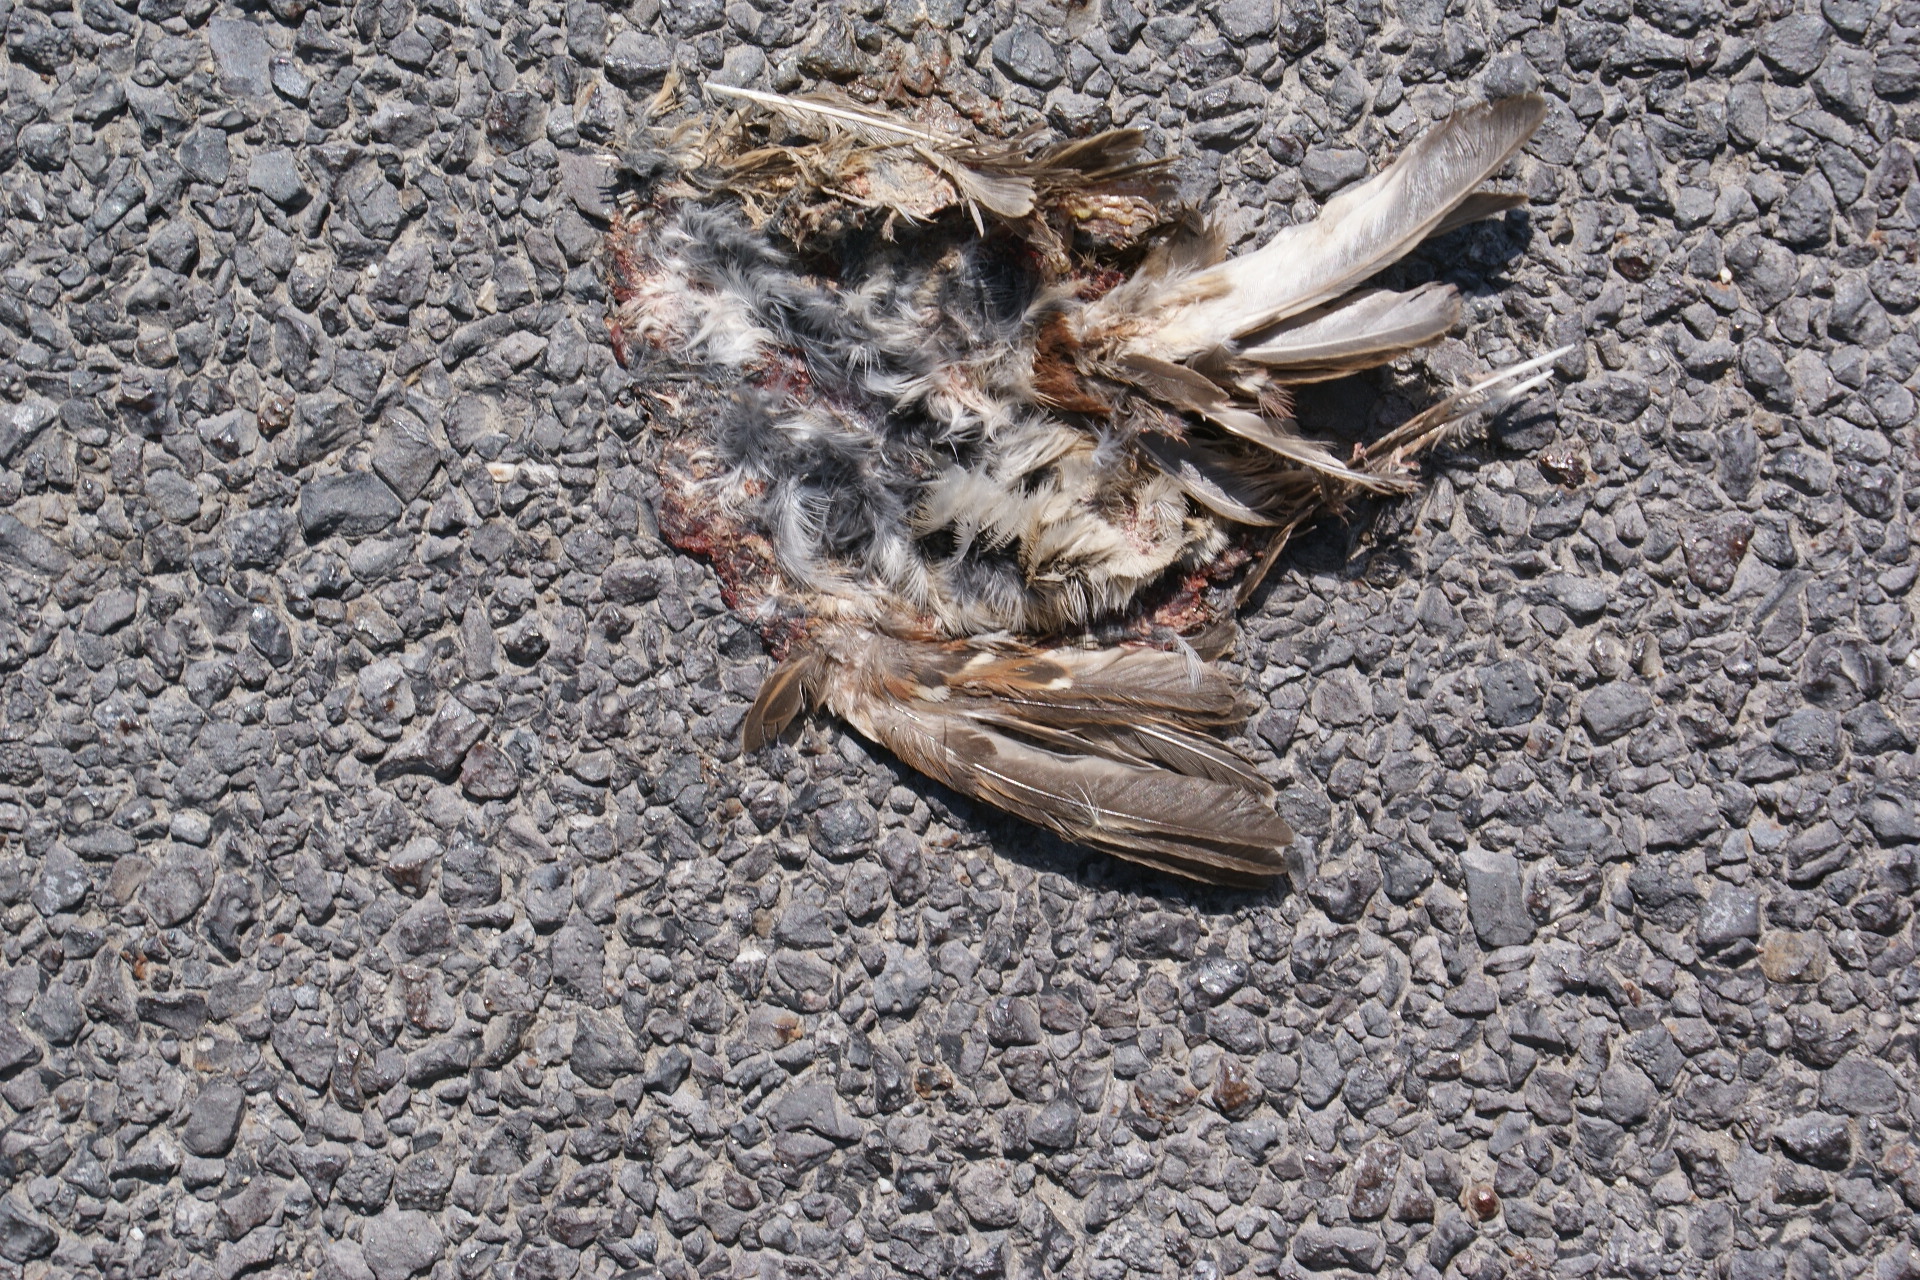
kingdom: Animalia
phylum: Chordata
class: Aves
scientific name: Aves
